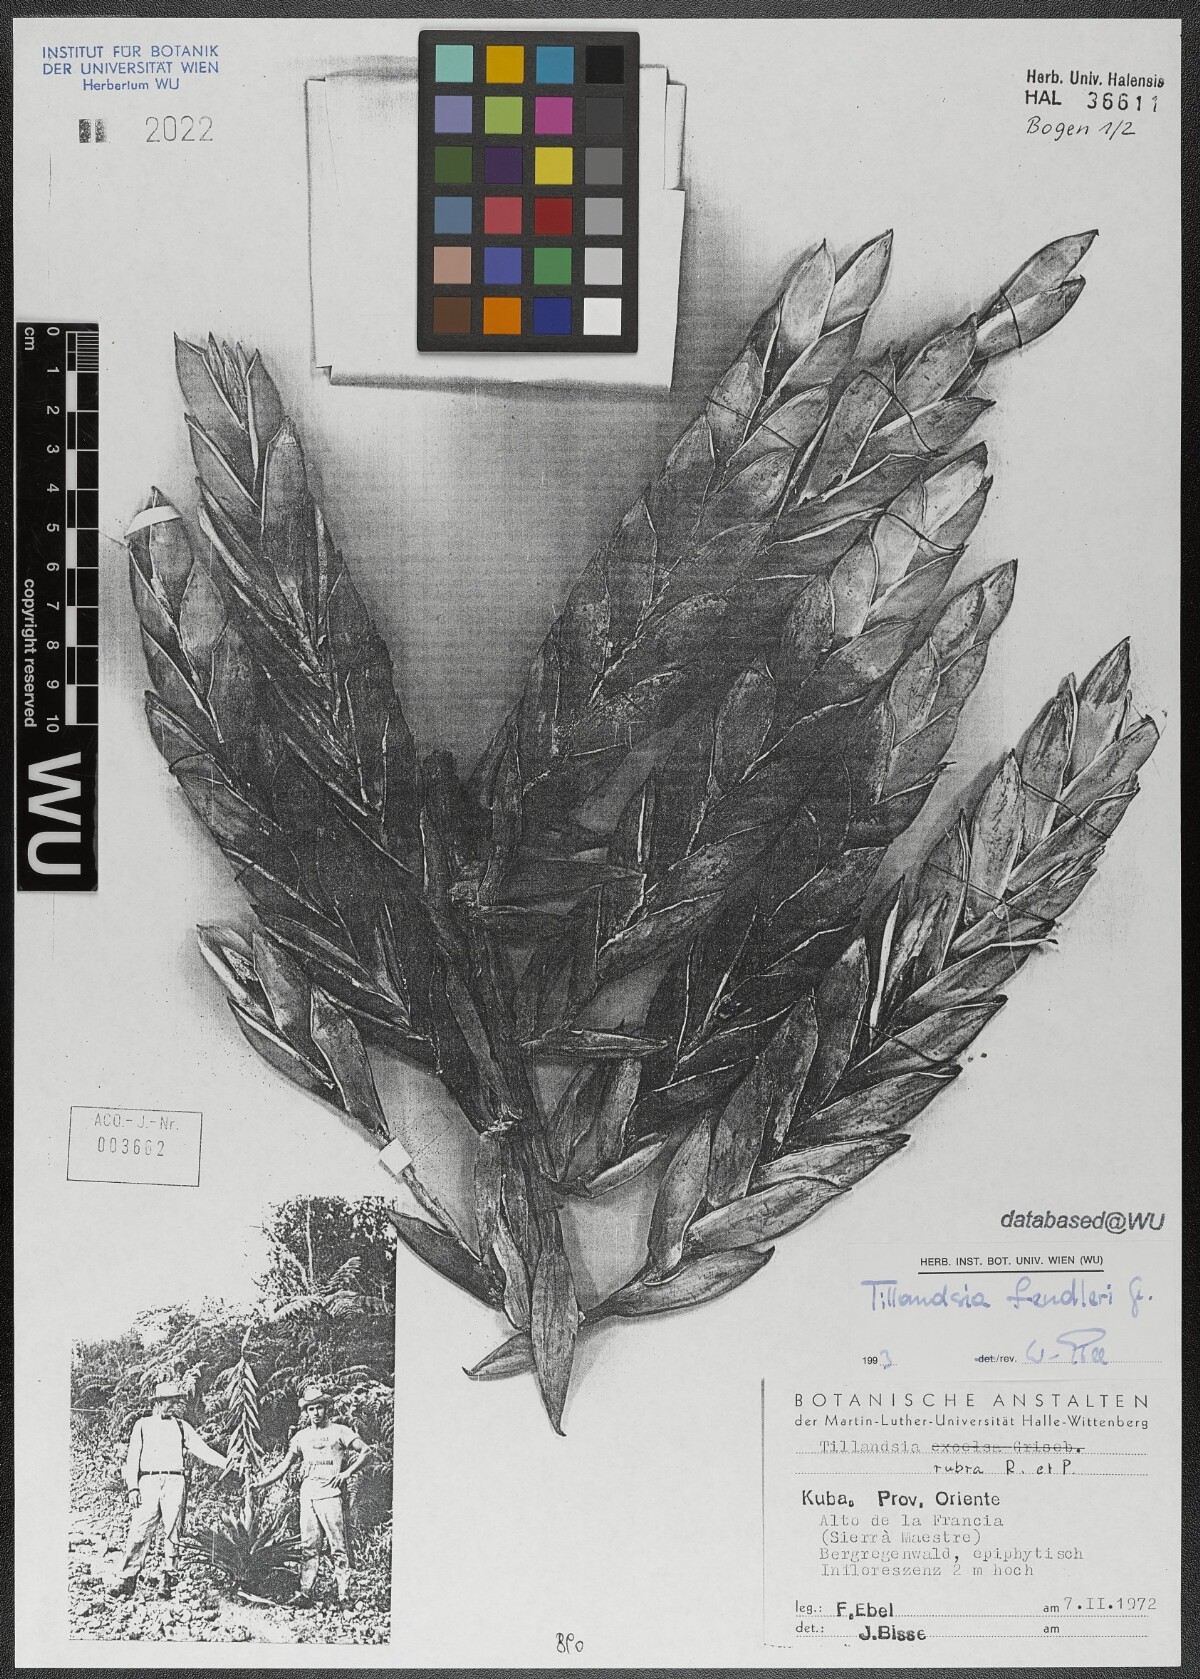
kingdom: Plantae
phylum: Tracheophyta
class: Liliopsida
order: Poales
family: Bromeliaceae
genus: Tillandsia
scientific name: Tillandsia fendleri
